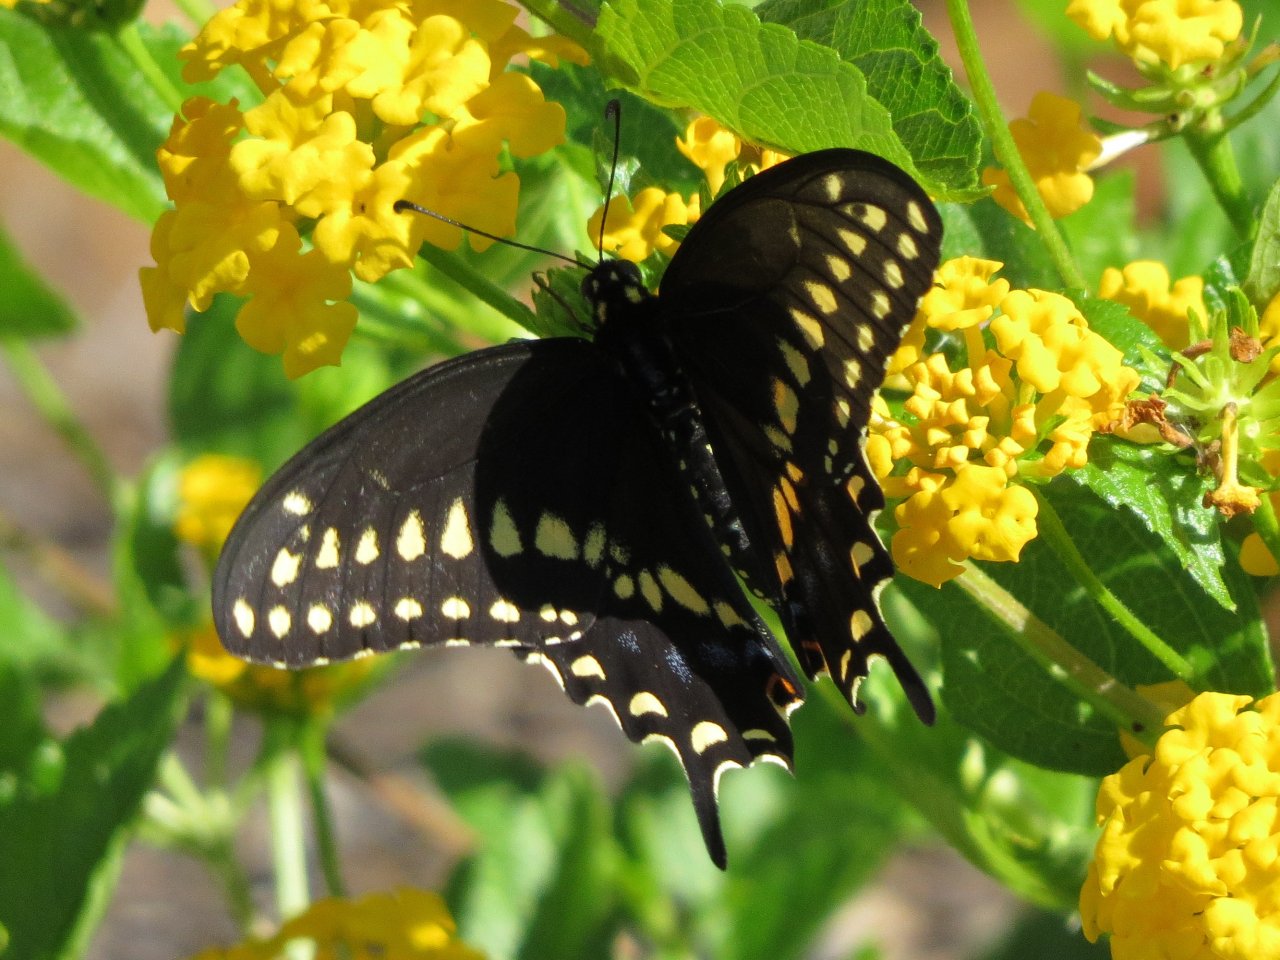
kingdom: Animalia
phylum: Arthropoda
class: Insecta
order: Lepidoptera
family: Papilionidae
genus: Papilio
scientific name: Papilio polyxenes
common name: Black Swallowtail
